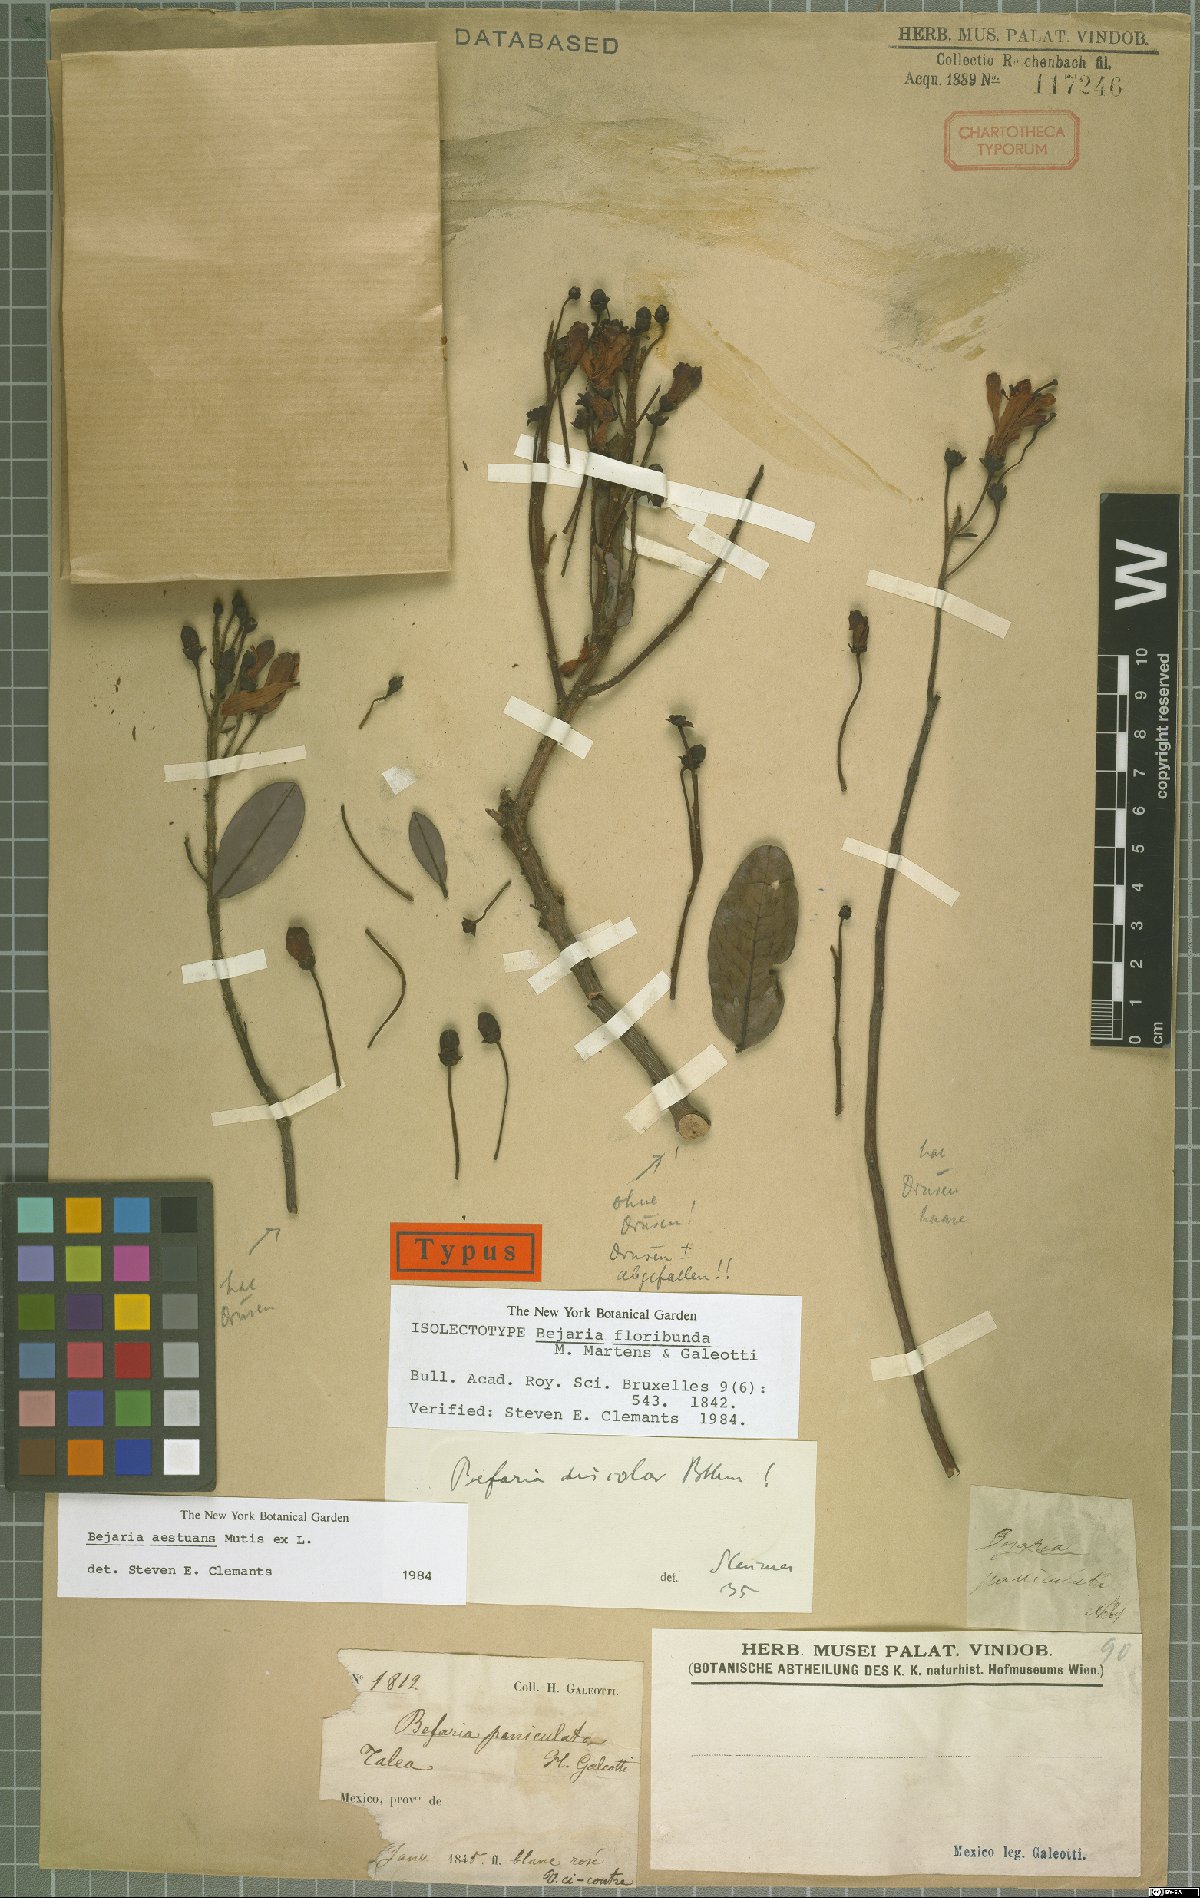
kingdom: Plantae
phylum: Tracheophyta
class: Magnoliopsida
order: Ericales
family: Ericaceae
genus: Bejaria
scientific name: Bejaria aestuans
